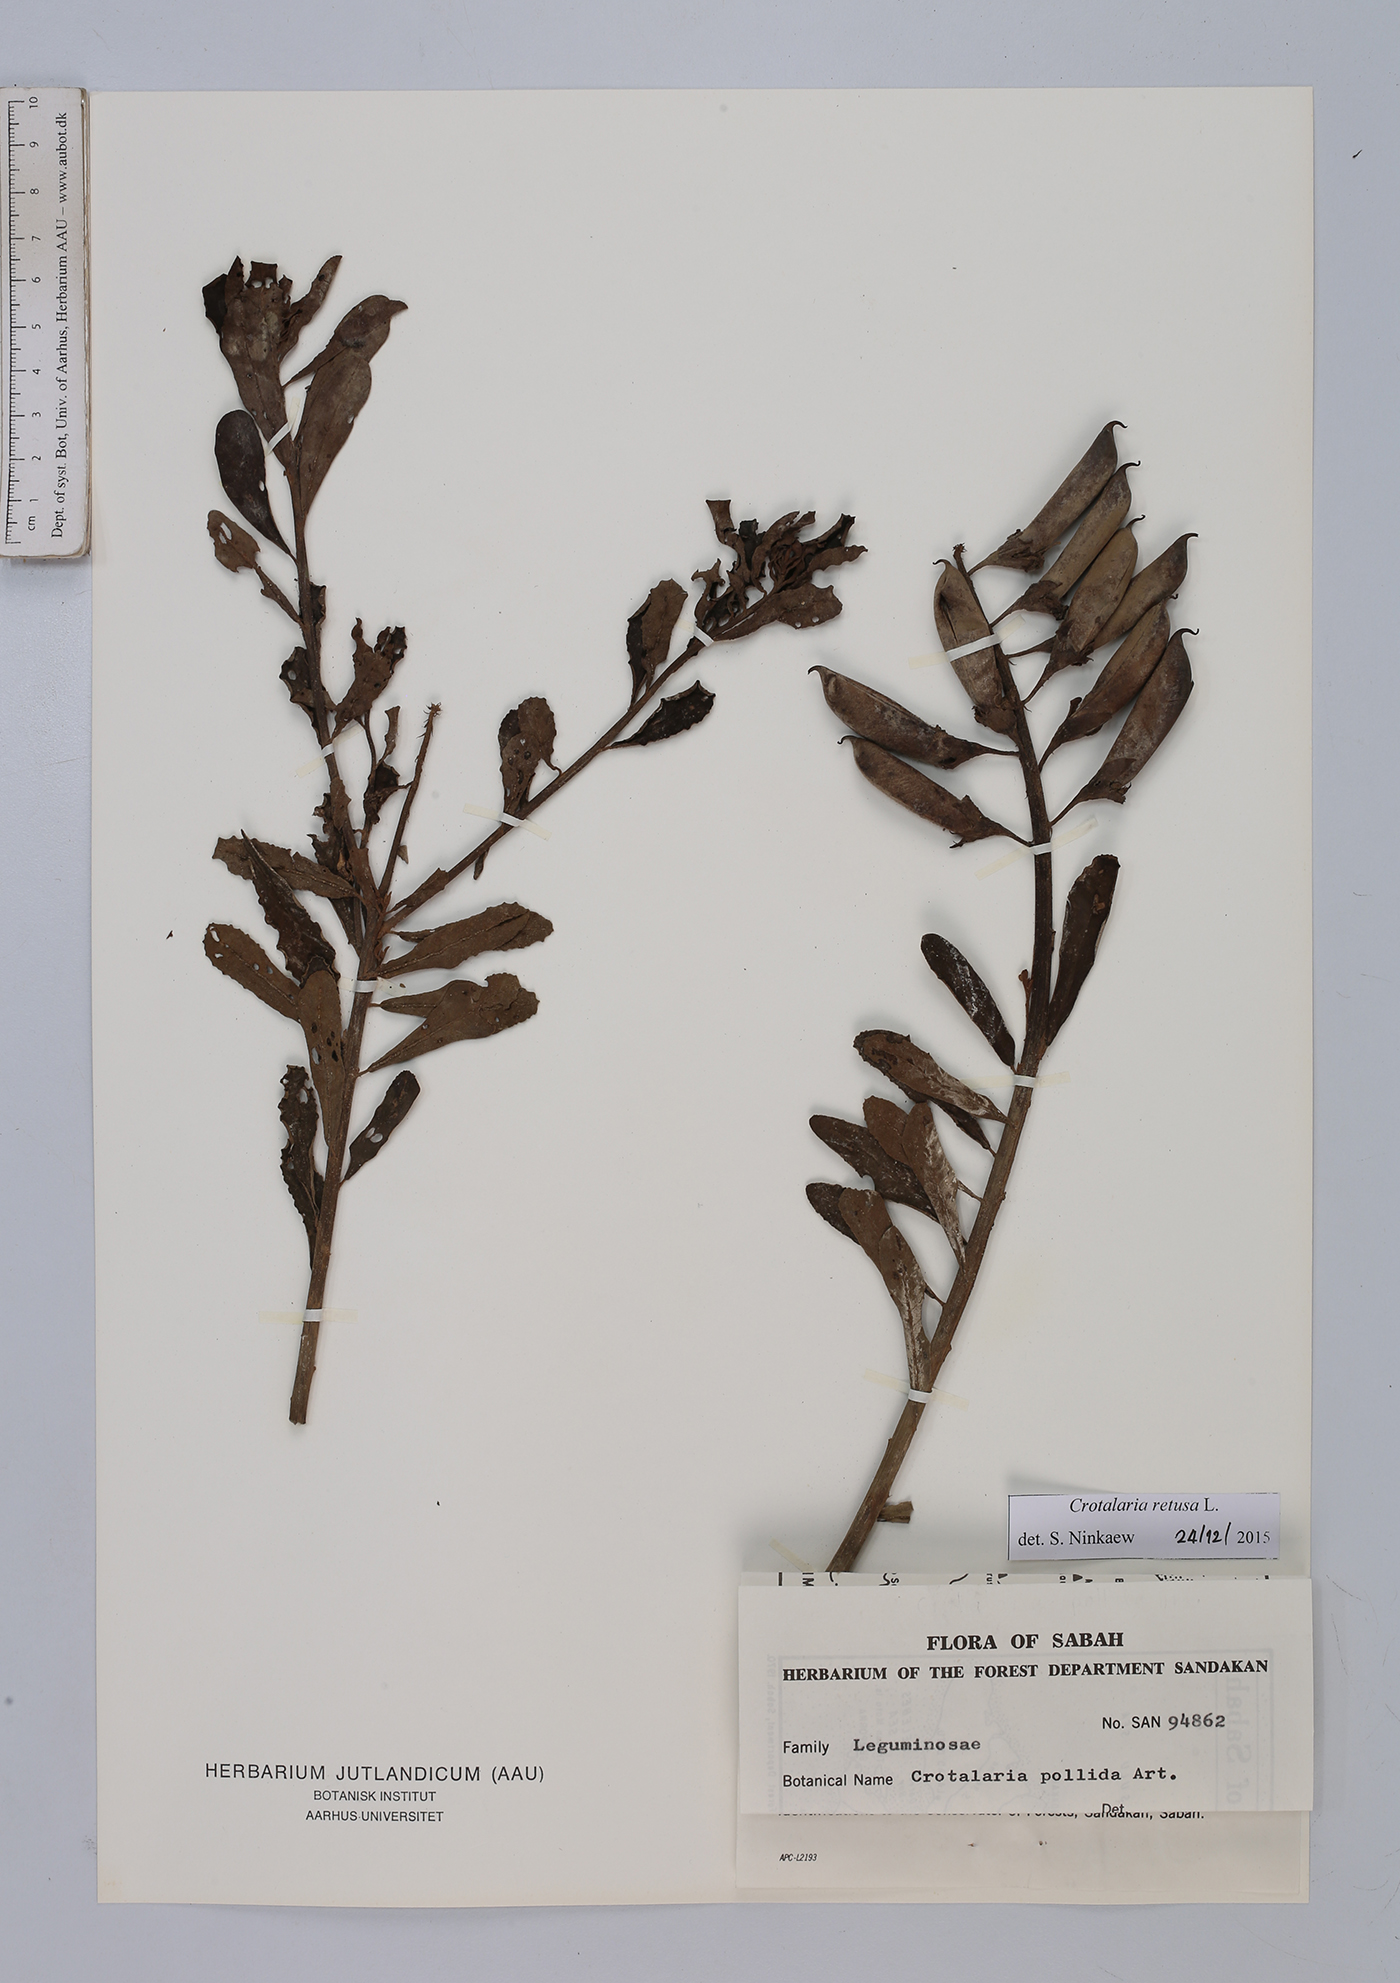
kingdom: Plantae
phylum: Tracheophyta
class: Magnoliopsida
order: Fabales
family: Fabaceae
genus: Crotalaria
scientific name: Crotalaria retusa
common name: Rattleweed
